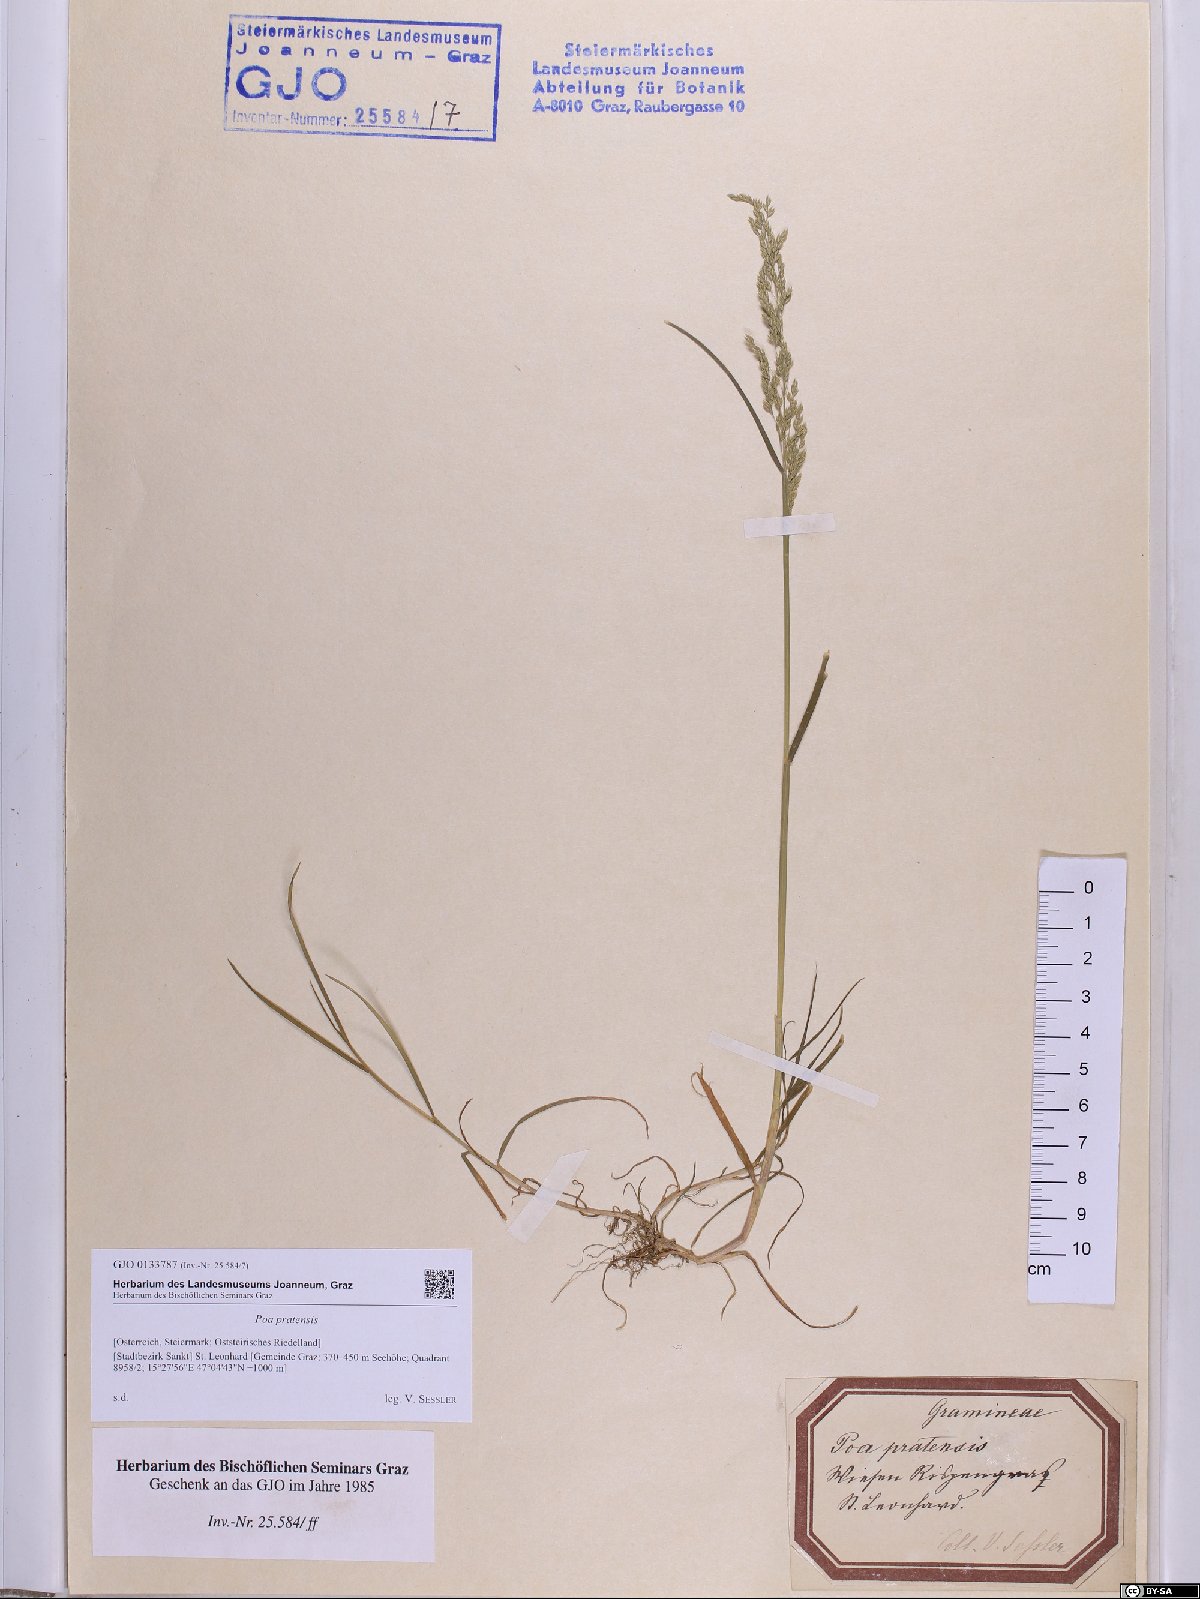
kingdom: Plantae
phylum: Tracheophyta
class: Liliopsida
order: Poales
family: Poaceae
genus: Poa
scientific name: Poa pratensis
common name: Kentucky bluegrass
